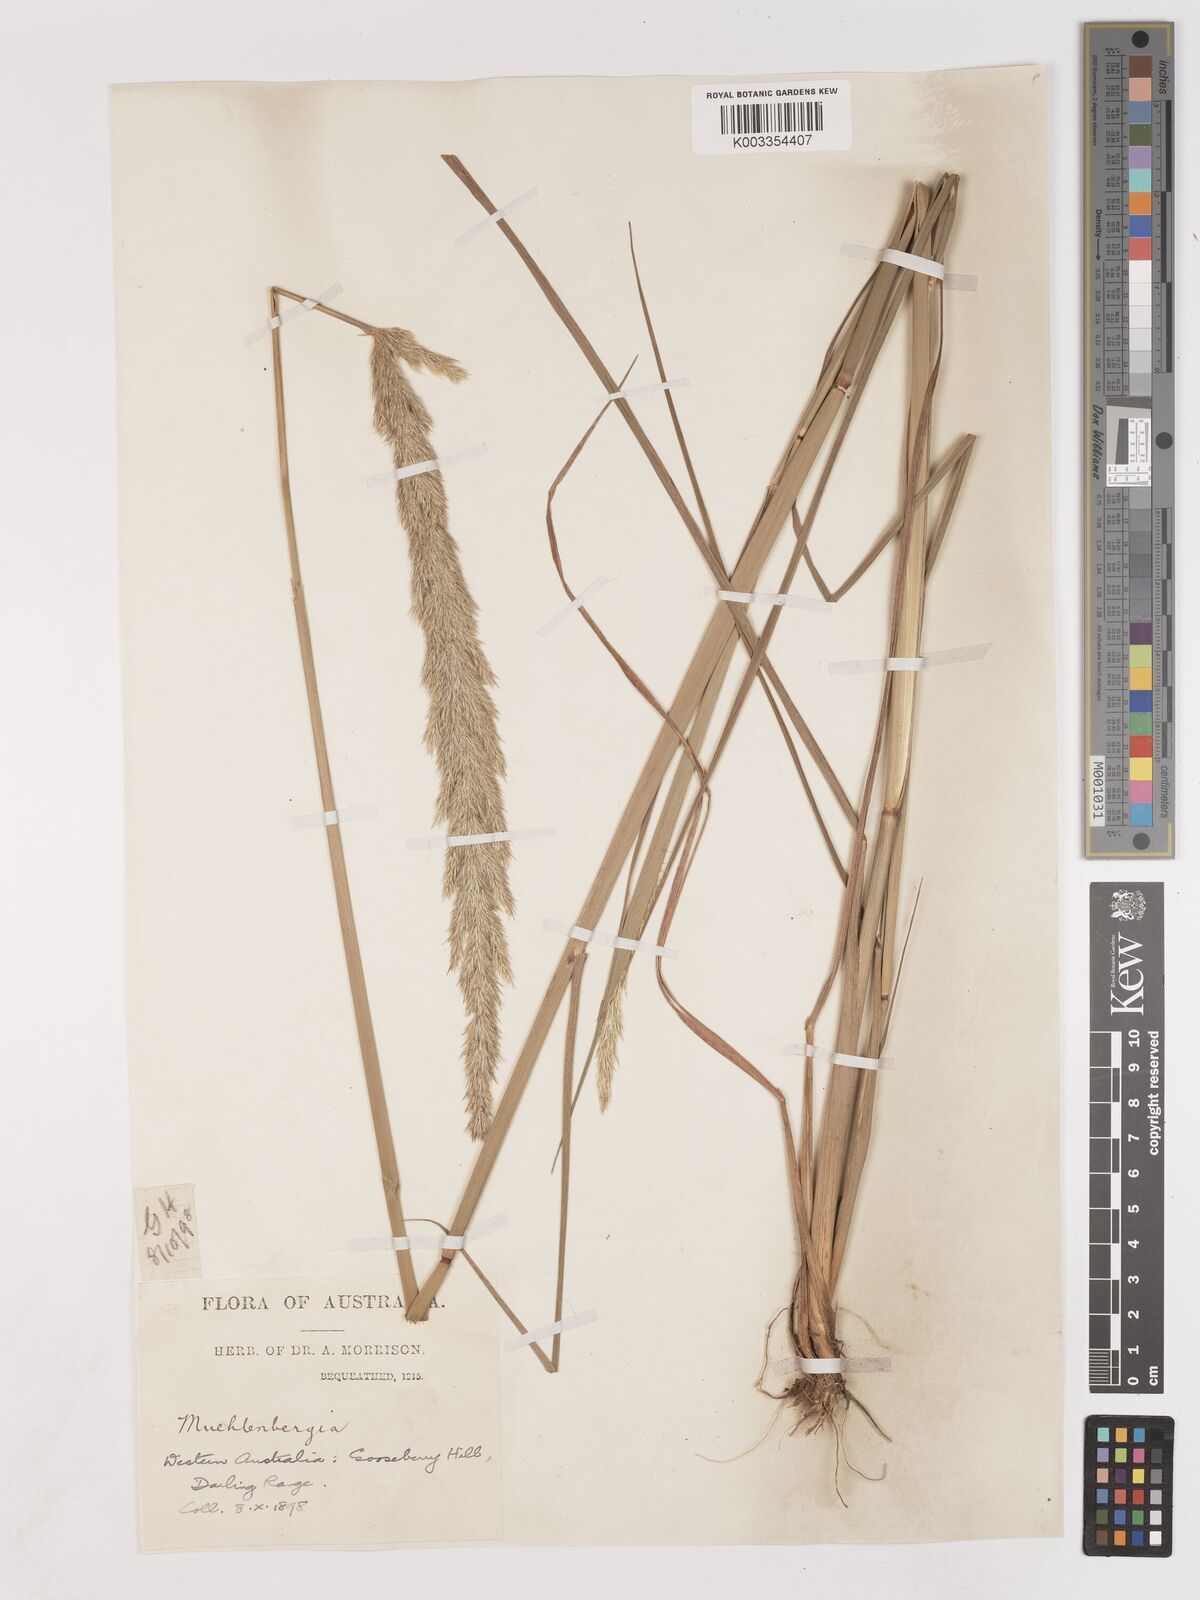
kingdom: Plantae
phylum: Tracheophyta
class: Liliopsida
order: Poales
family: Poaceae
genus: Calamagrostis
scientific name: Calamagrostis
